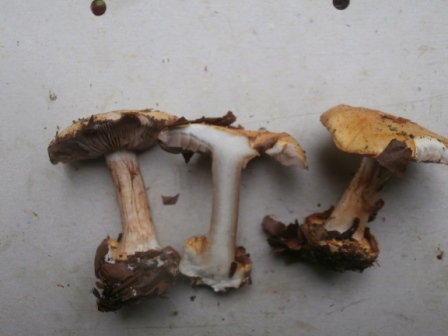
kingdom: Fungi
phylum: Basidiomycota
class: Agaricomycetes
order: Agaricales
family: Cortinariaceae
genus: Calonarius
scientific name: Calonarius platypus
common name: platfodet slørhat
